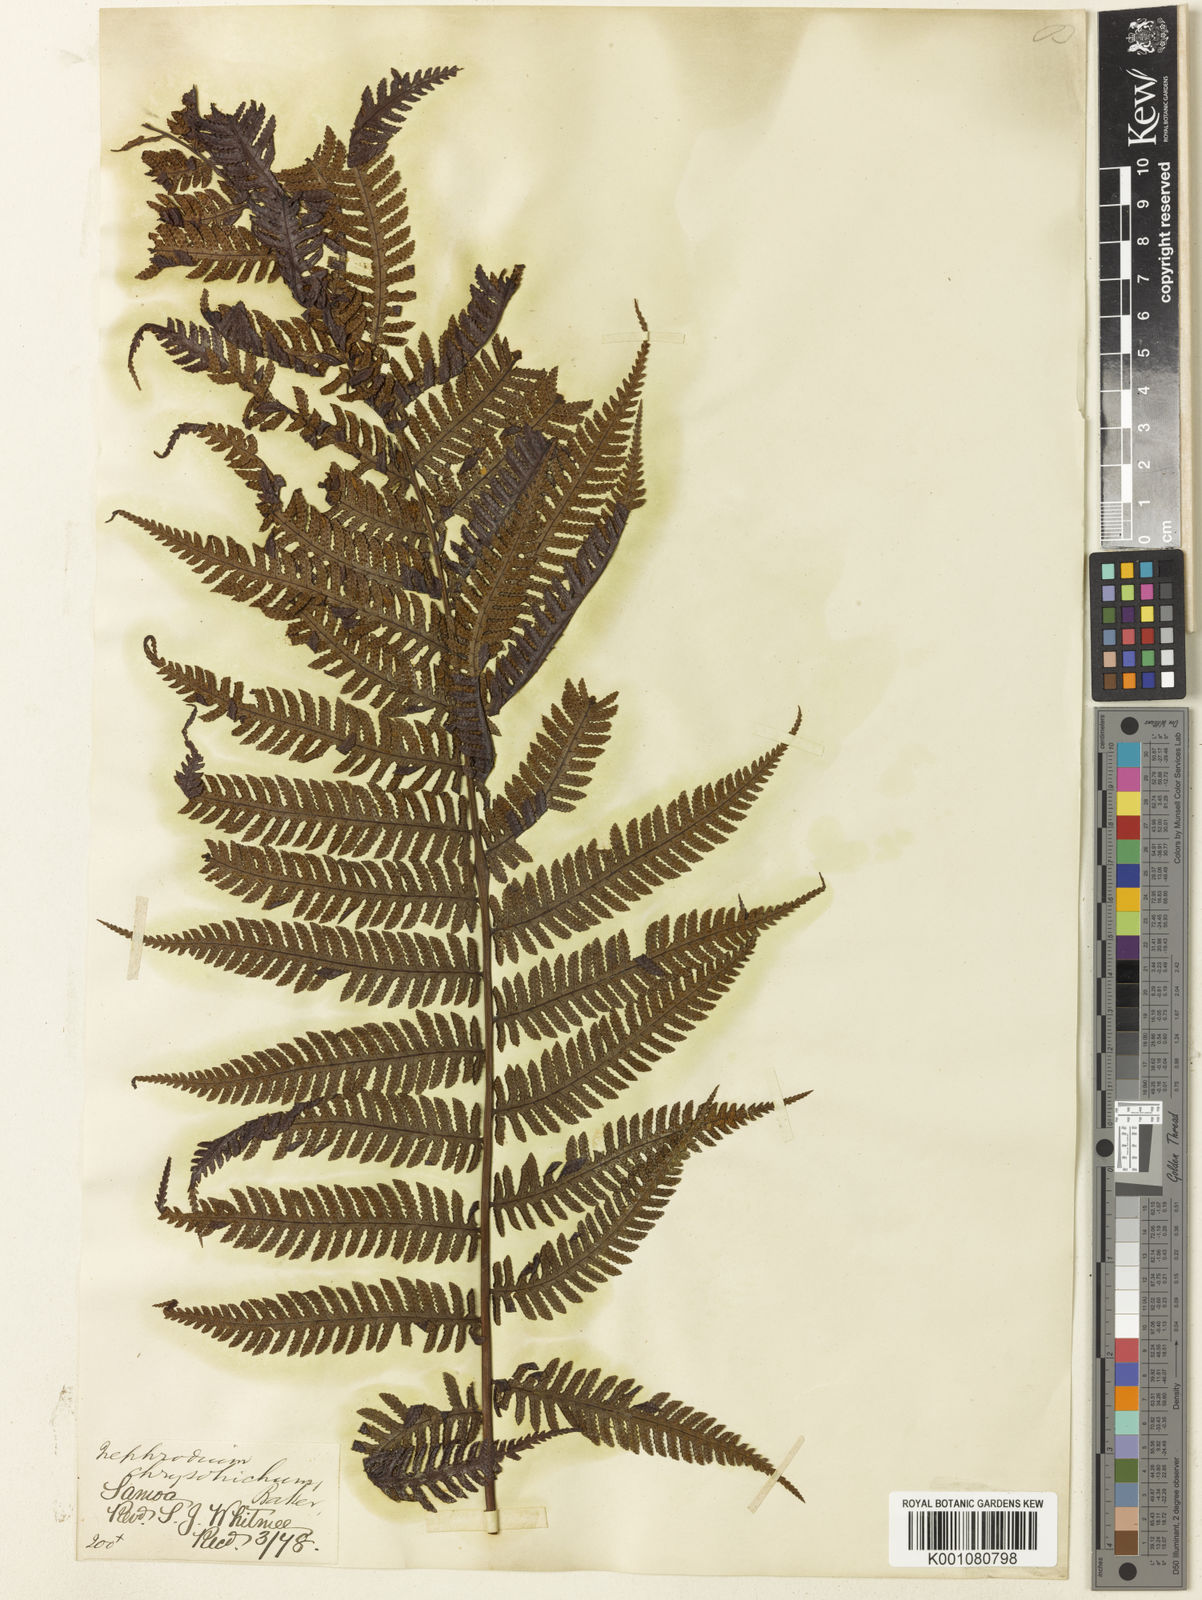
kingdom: Plantae
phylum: Tracheophyta
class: Polypodiopsida
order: Polypodiales
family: Dryopteridaceae
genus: Pleocnemia
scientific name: Pleocnemia cumingiana
